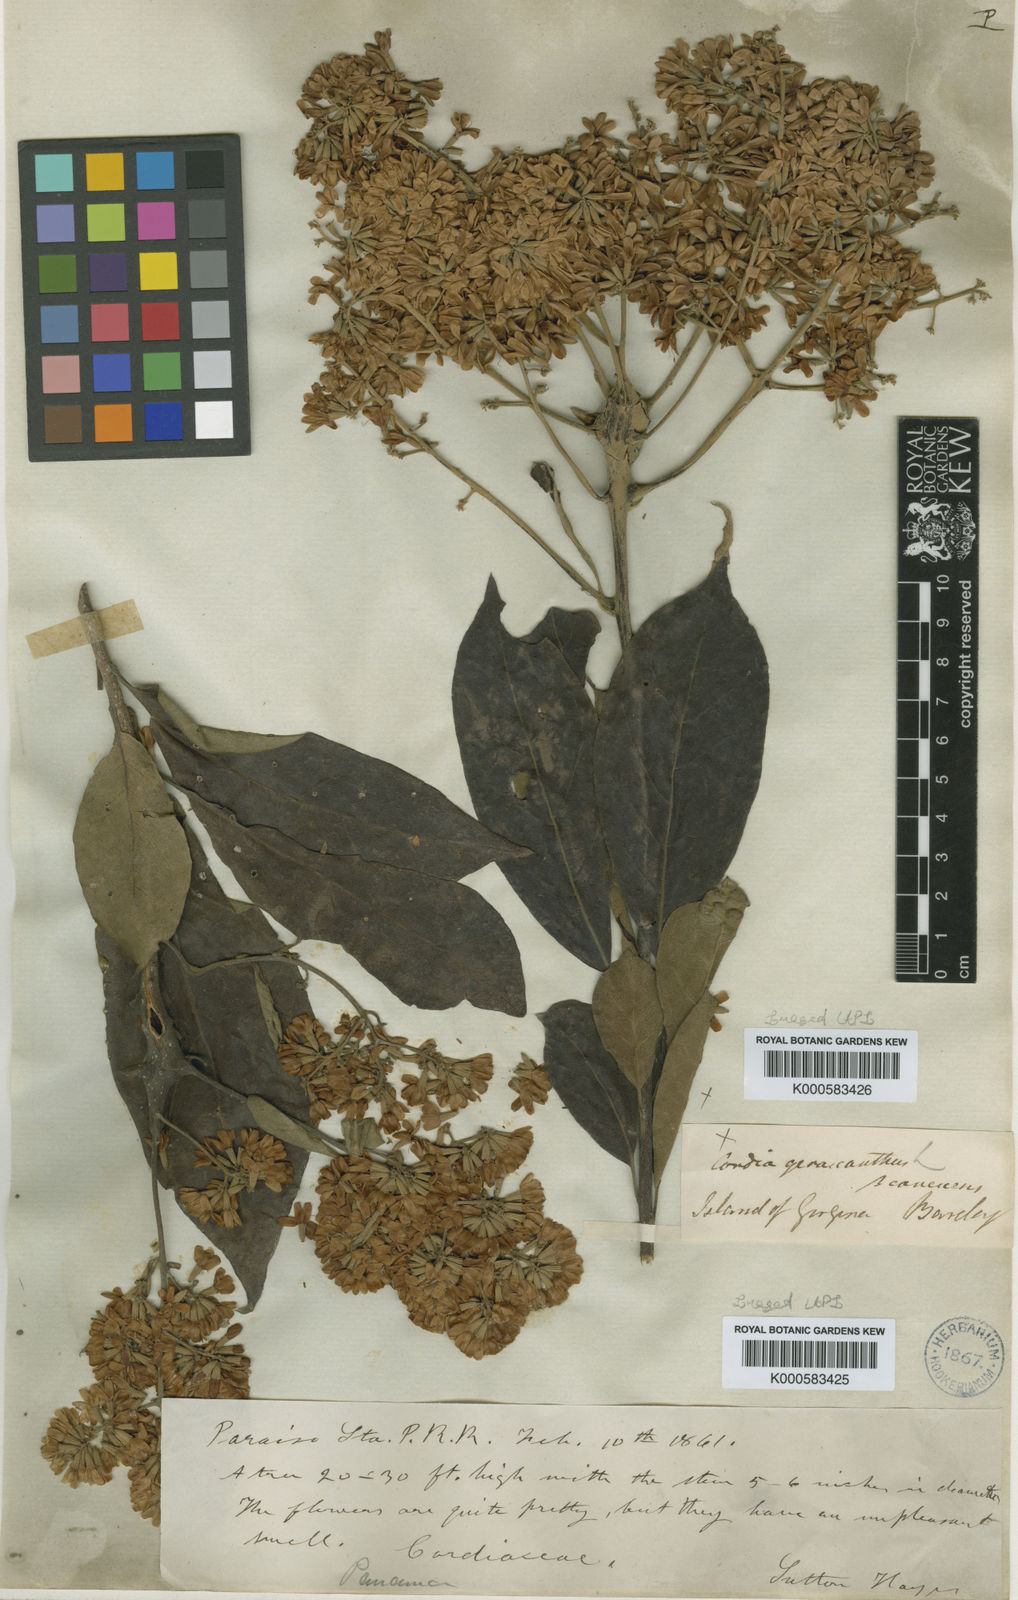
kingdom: Plantae
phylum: Tracheophyta
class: Magnoliopsida
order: Boraginales
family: Cordiaceae
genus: Cordia
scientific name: Cordia
